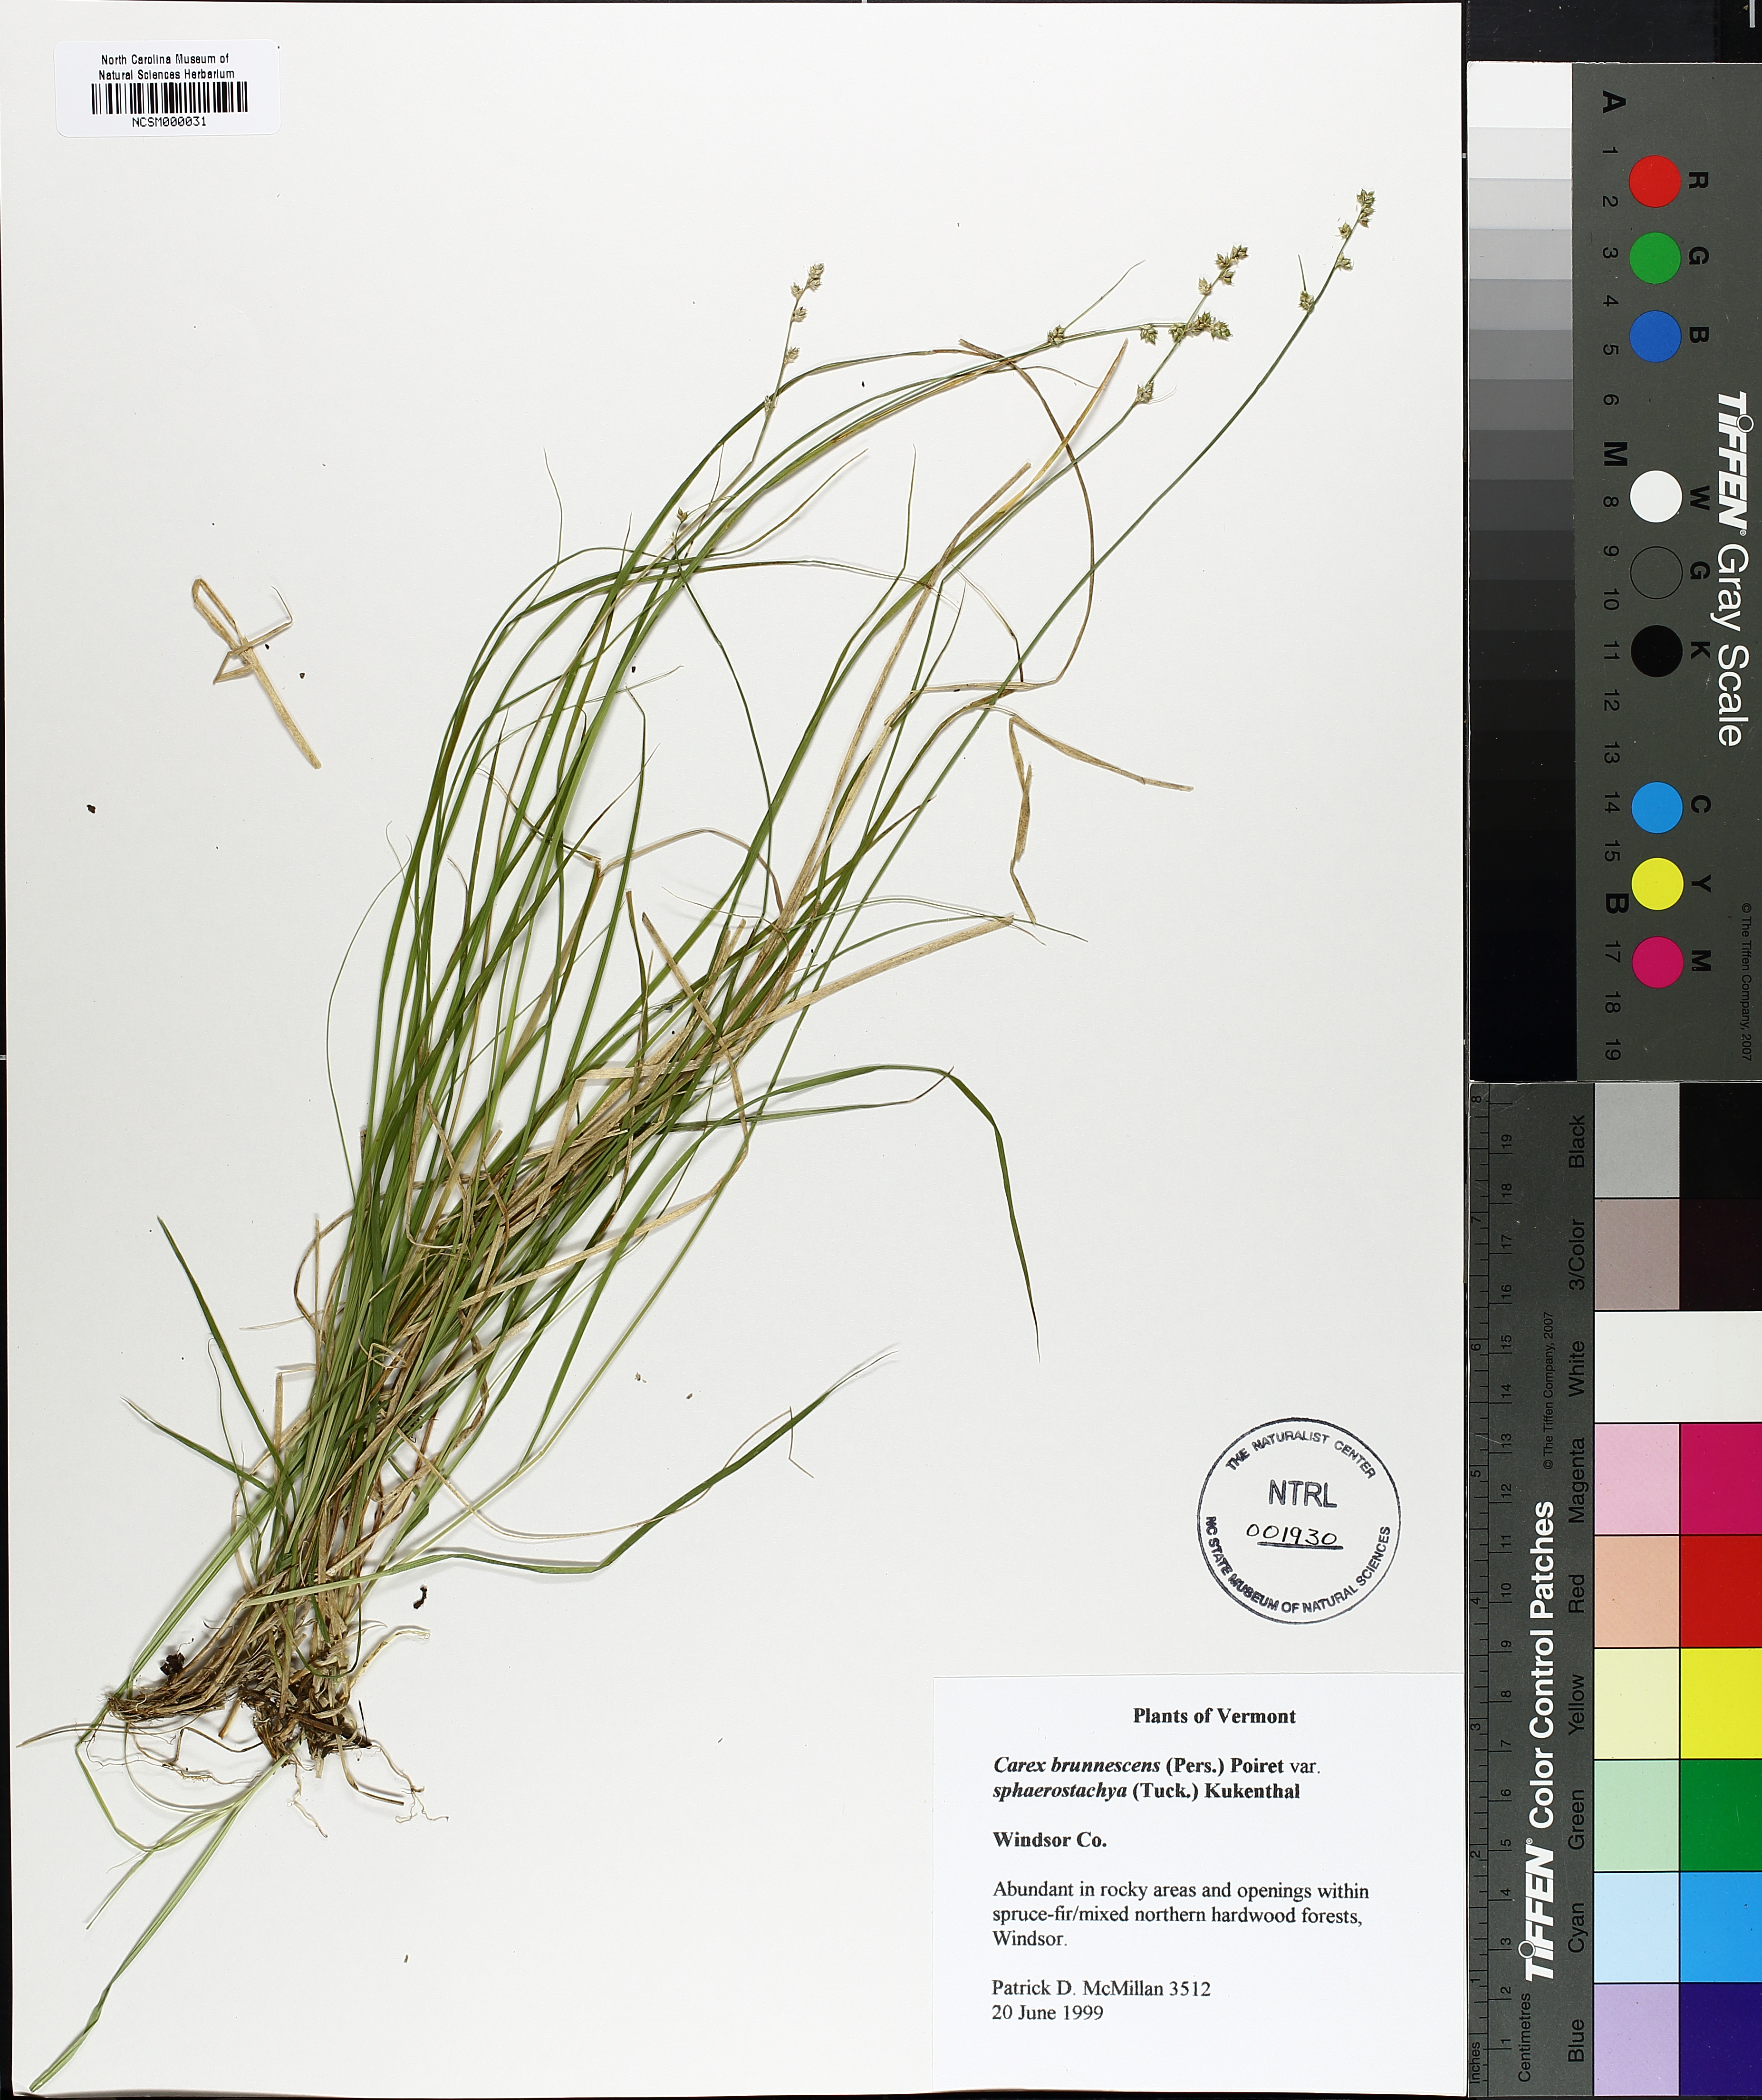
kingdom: Plantae
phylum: Tracheophyta
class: Liliopsida
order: Poales
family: Cyperaceae
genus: Carex
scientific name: Carex brunnescens
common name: Brown sedge
